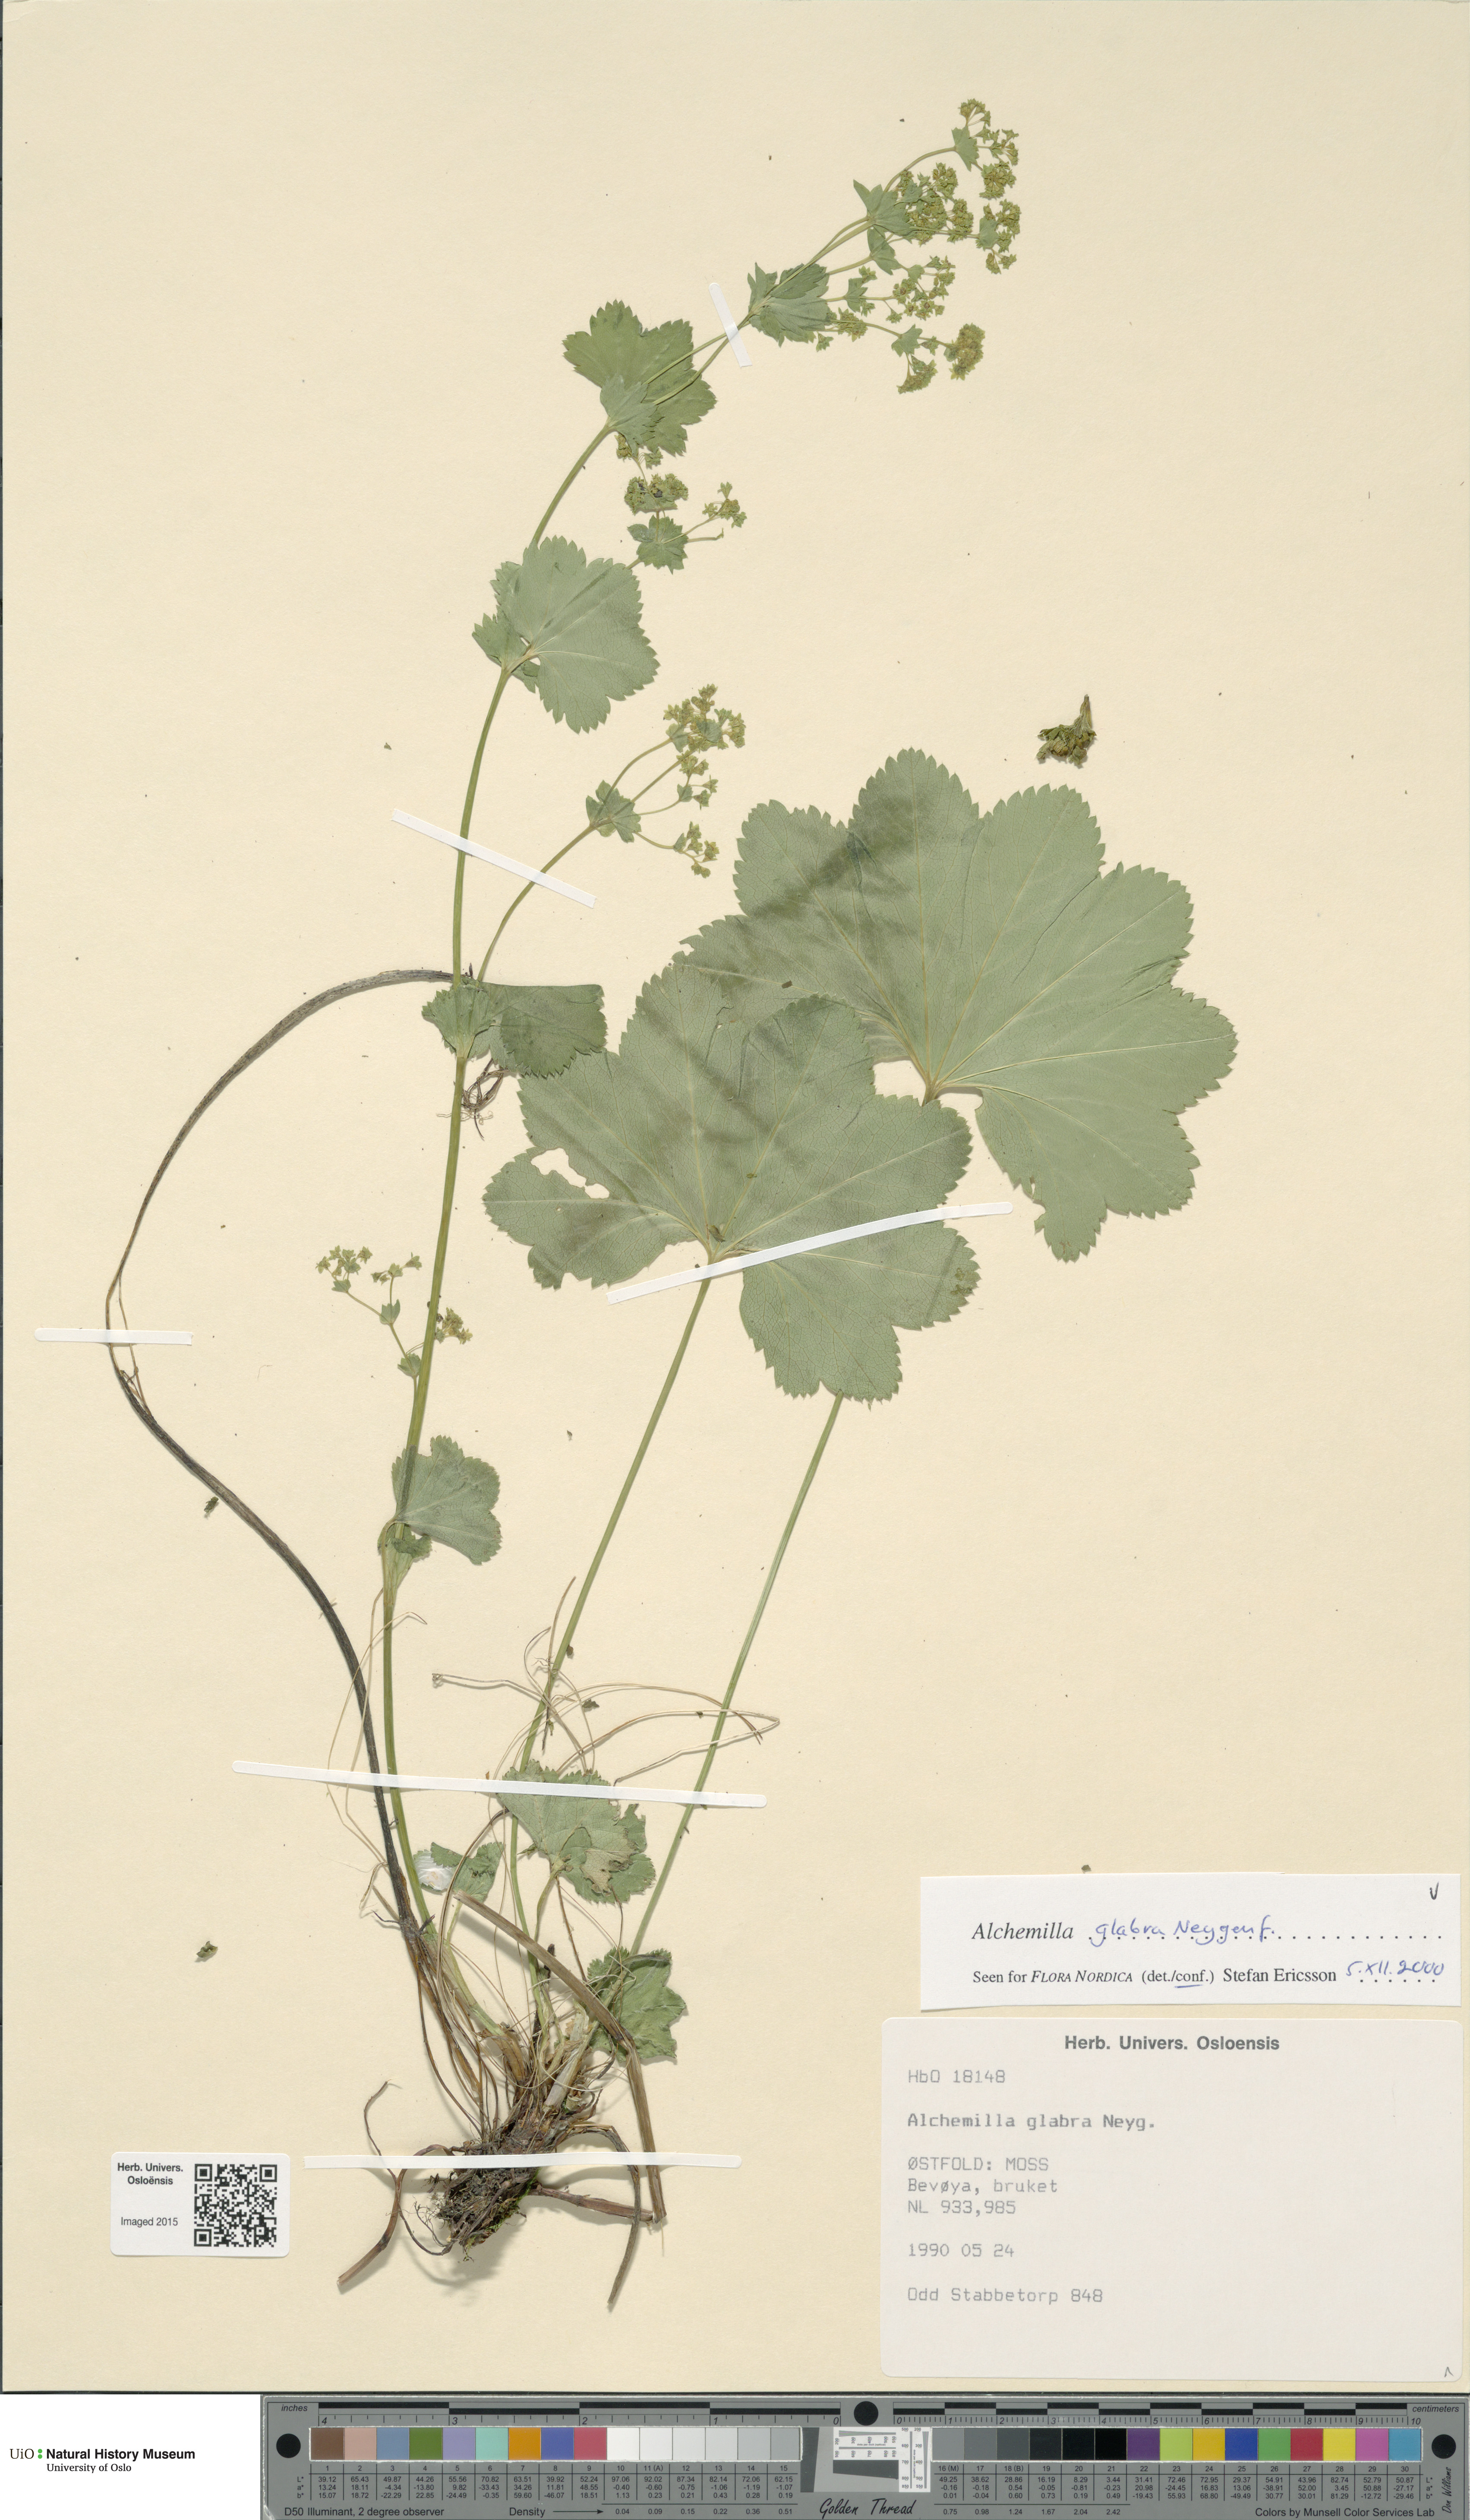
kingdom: Plantae
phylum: Tracheophyta
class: Magnoliopsida
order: Rosales
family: Rosaceae
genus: Alchemilla
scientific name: Alchemilla glabra
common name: Smooth lady's-mantle
